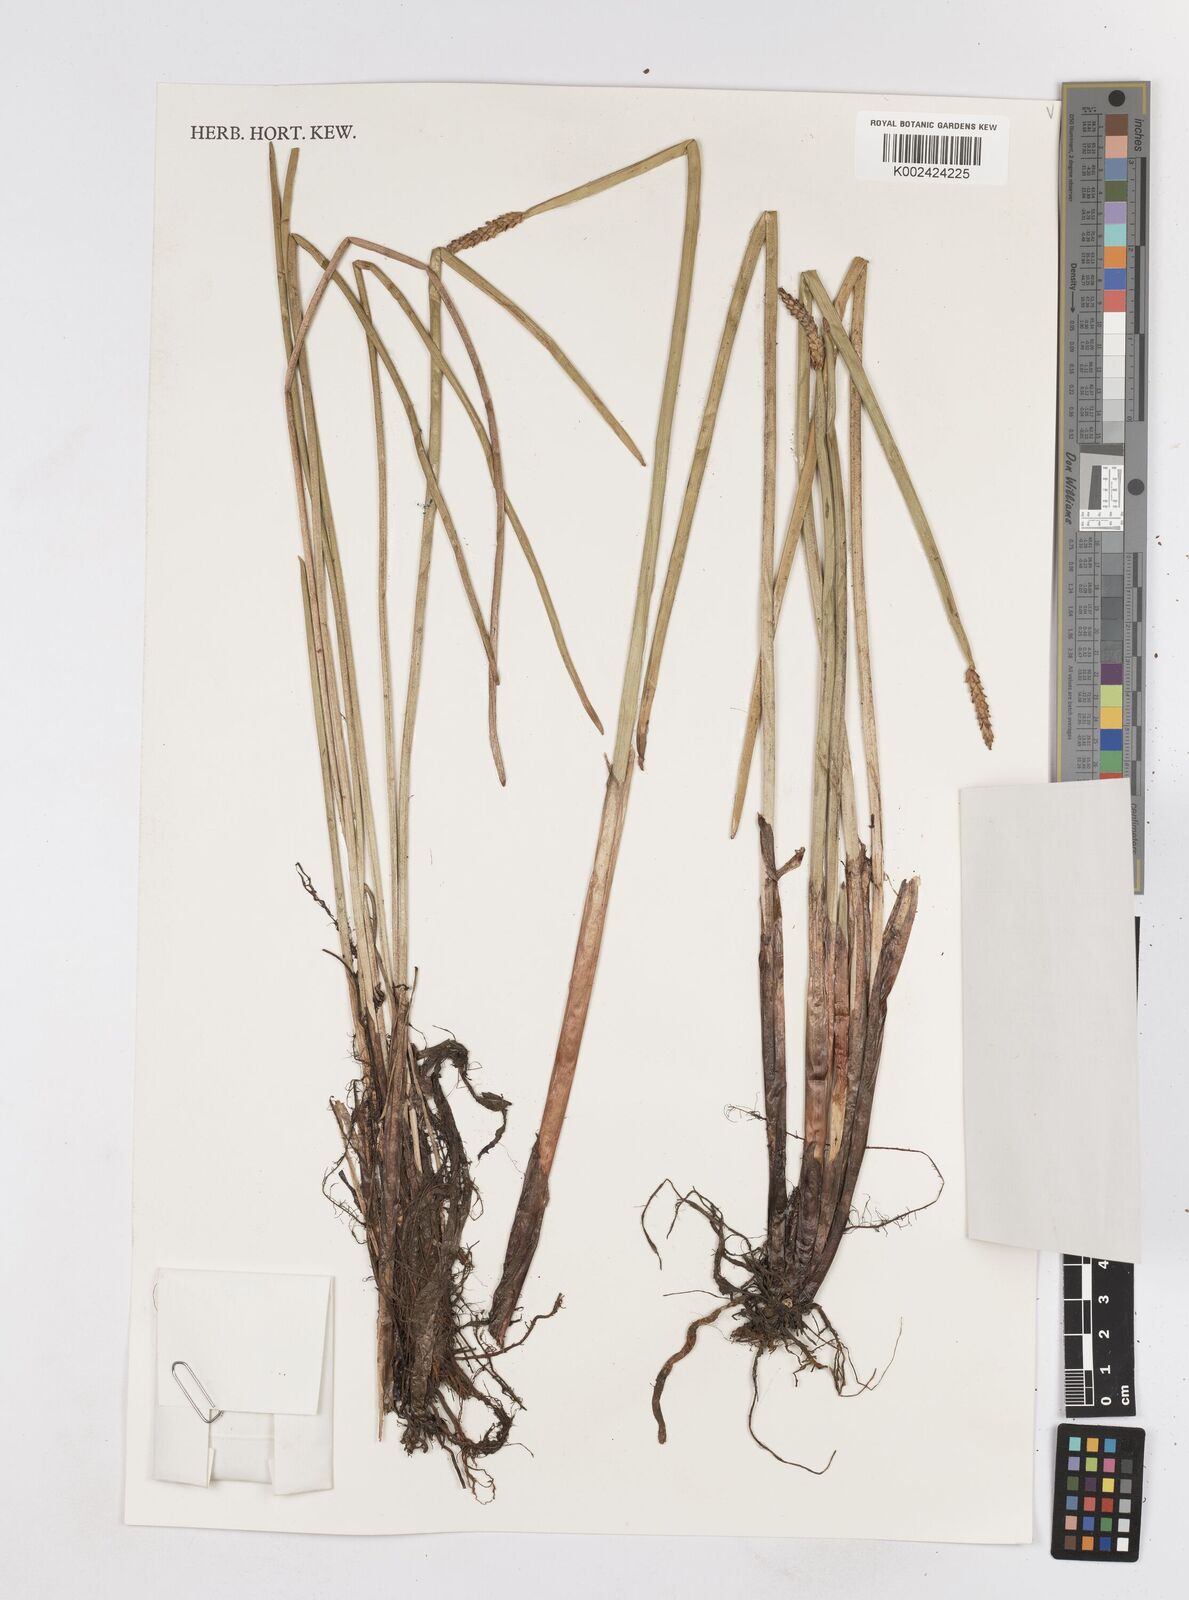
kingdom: Plantae
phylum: Tracheophyta
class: Liliopsida
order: Poales
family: Cyperaceae
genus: Eleocharis
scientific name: Eleocharis acutangula
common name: Acute spikerush
